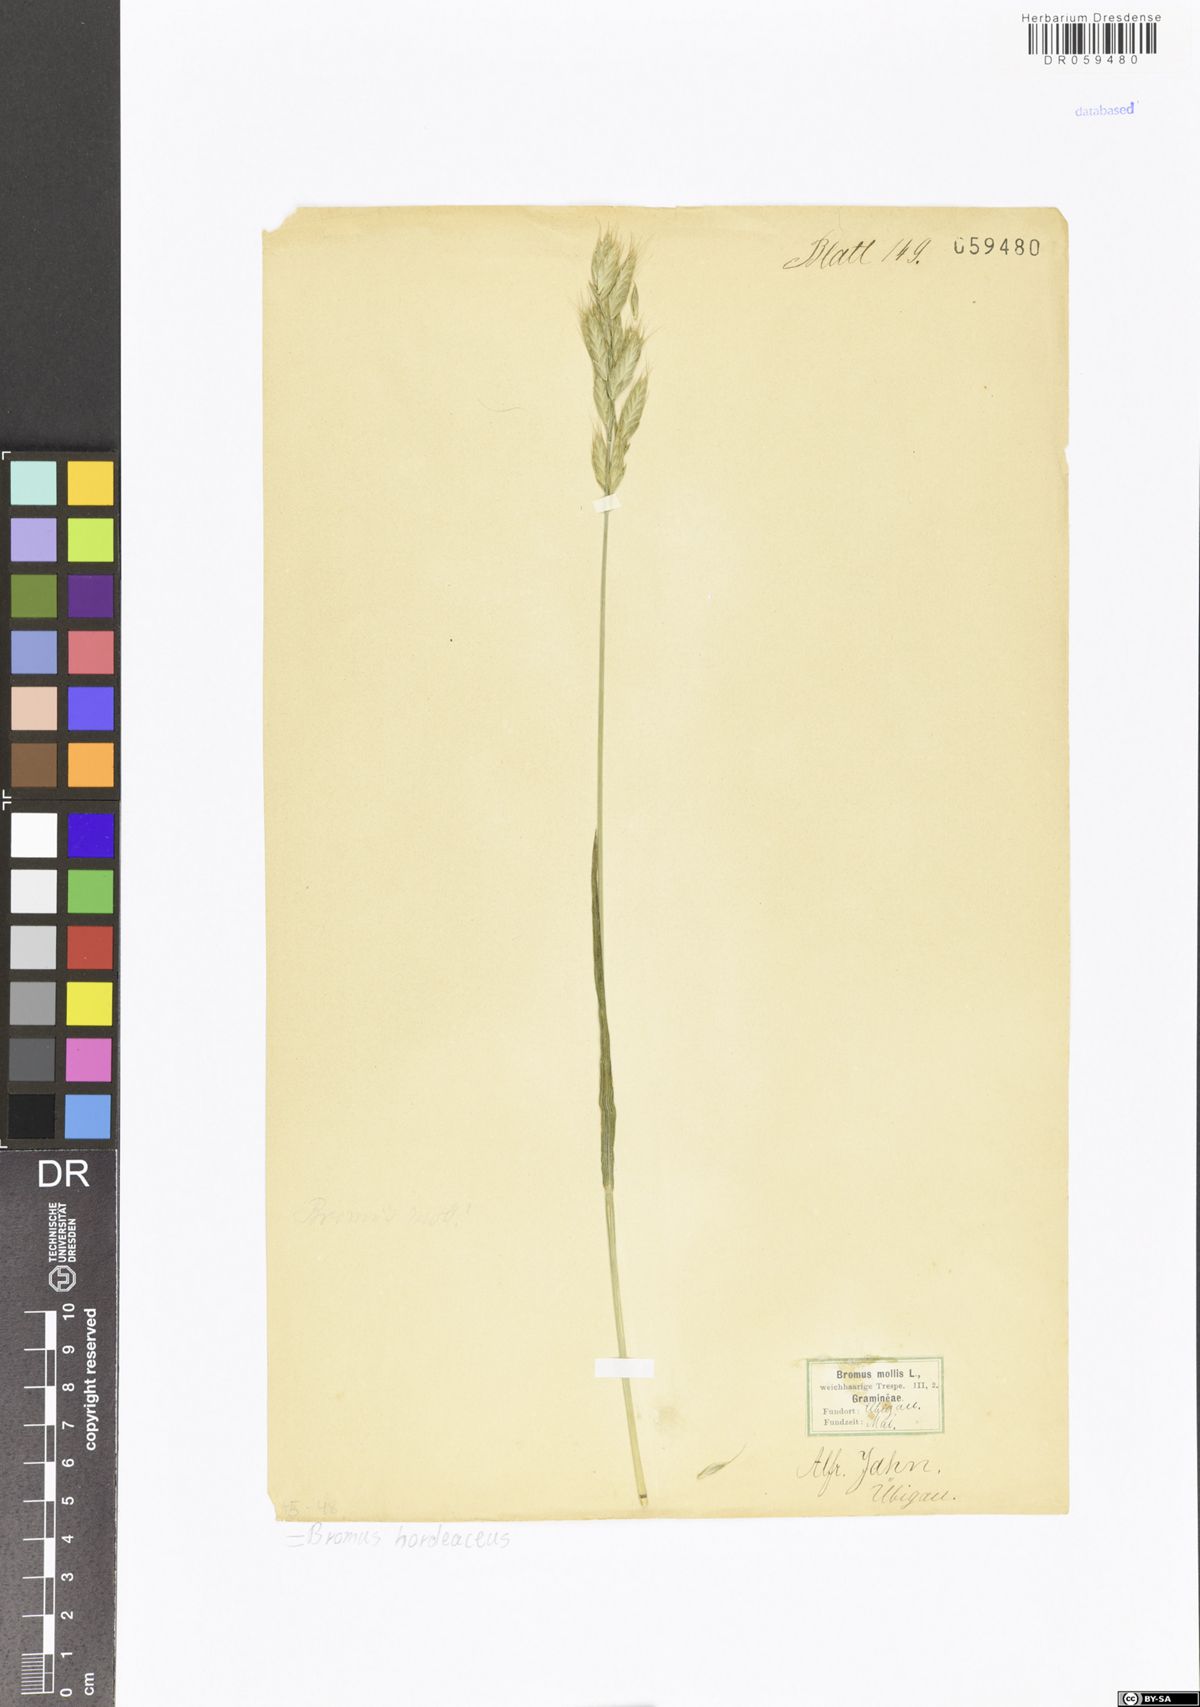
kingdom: Plantae
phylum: Tracheophyta
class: Liliopsida
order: Poales
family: Poaceae
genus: Bromus
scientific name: Bromus hordeaceus
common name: Soft brome
